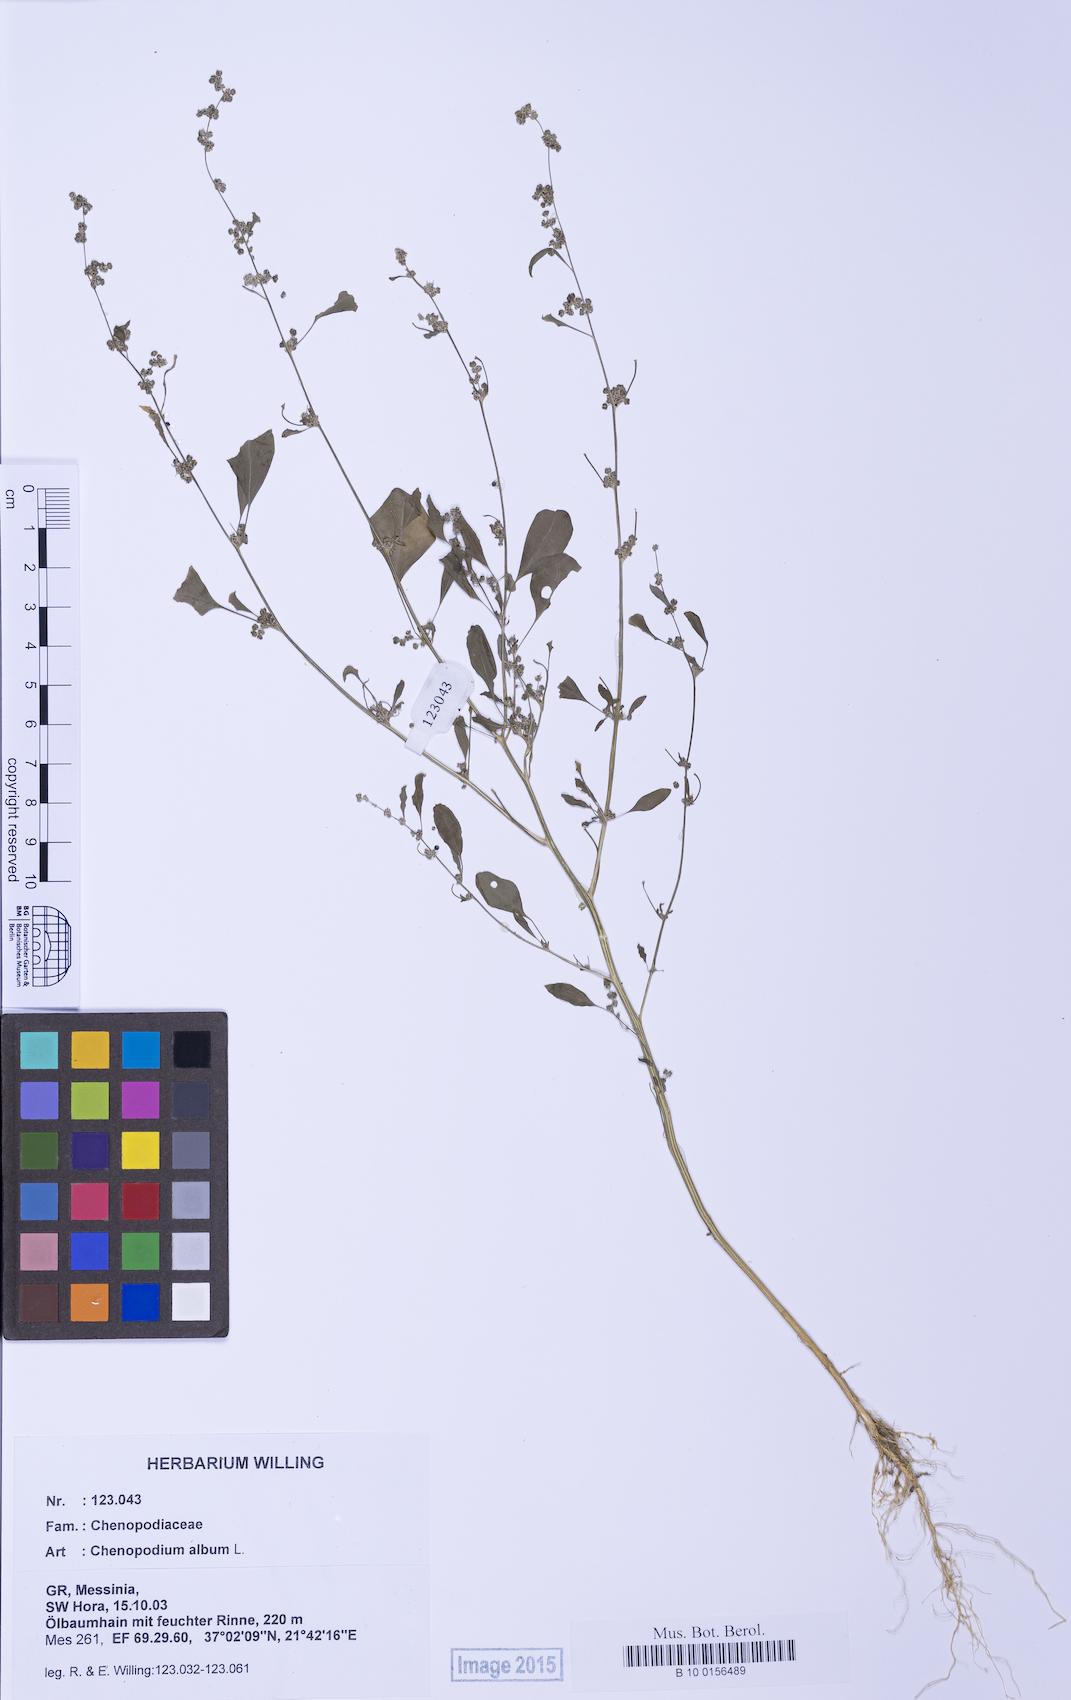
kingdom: Plantae
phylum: Tracheophyta
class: Magnoliopsida
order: Caryophyllales
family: Amaranthaceae
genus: Chenopodium
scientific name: Chenopodium striatiforme
